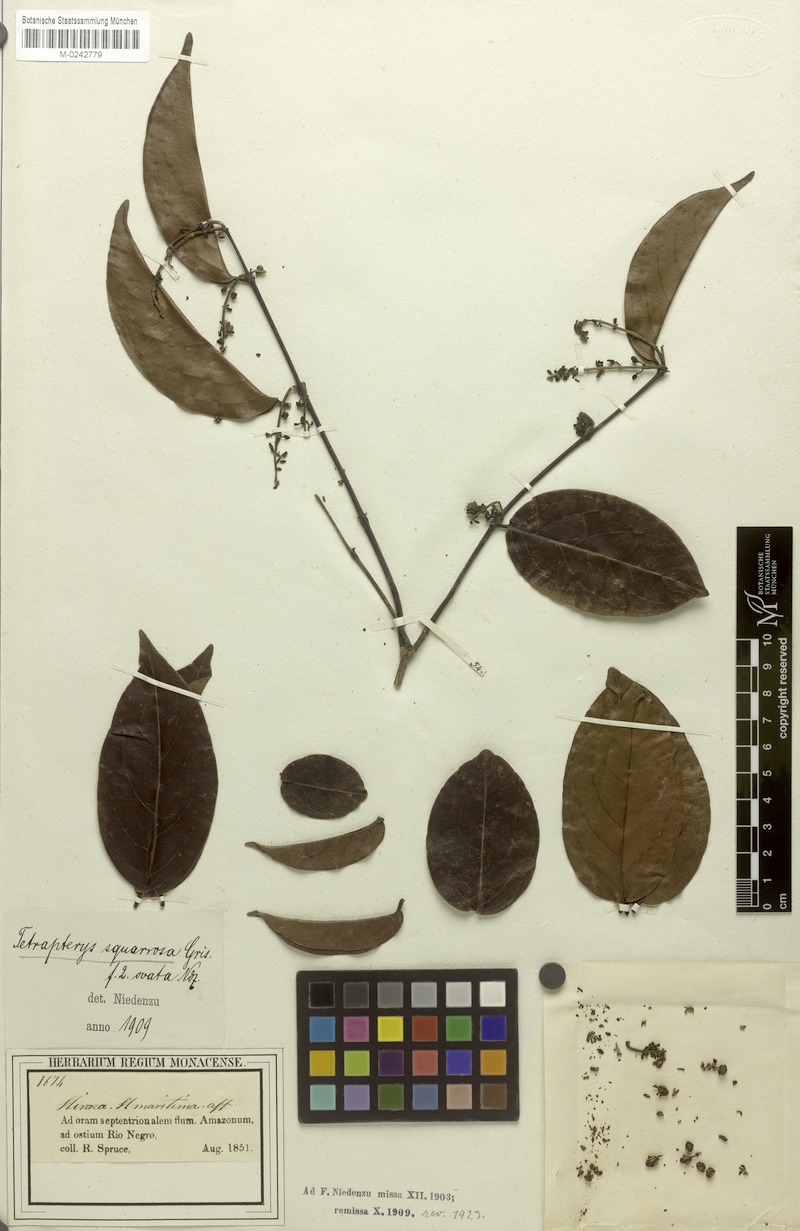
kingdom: Plantae
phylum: Tracheophyta
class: Magnoliopsida
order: Malpighiales
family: Malpighiaceae
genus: Glicophyllum
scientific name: Glicophyllum stylopterum
